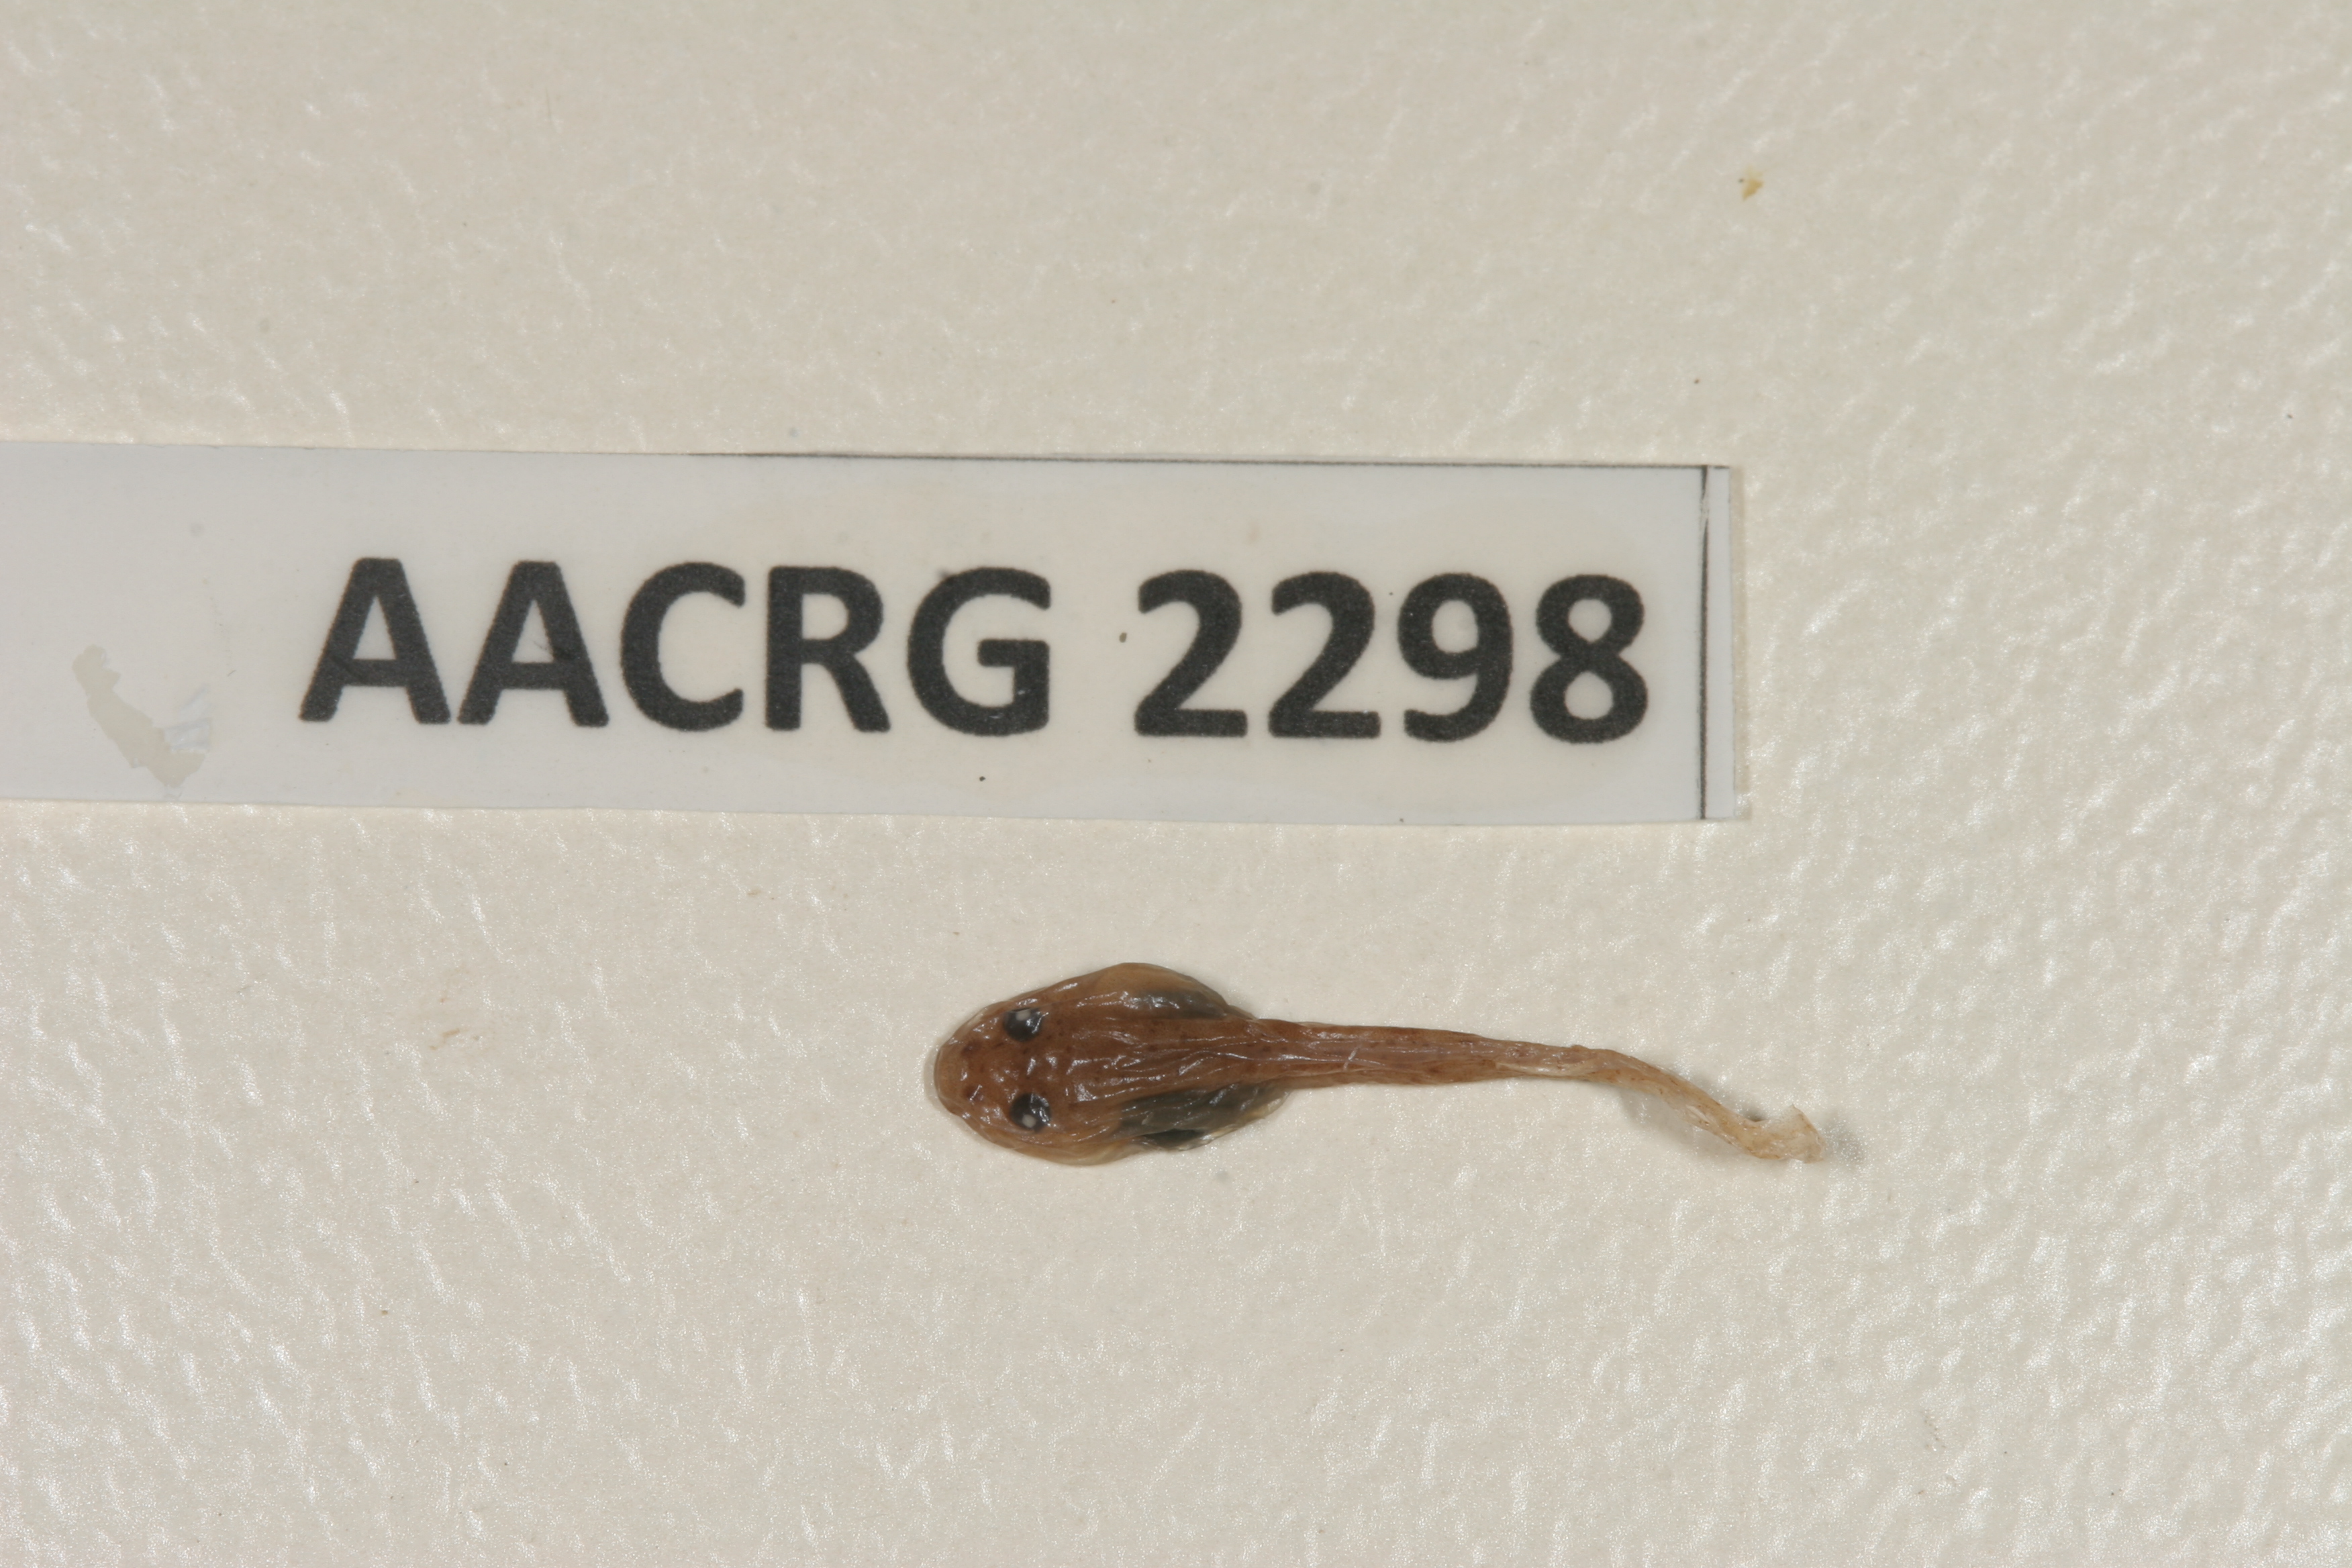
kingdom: Animalia
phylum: Chordata
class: Amphibia
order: Anura
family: Pyxicephalidae
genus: Tomopterna
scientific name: Tomopterna delalandii
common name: Delalande's burrowing bullfrog
